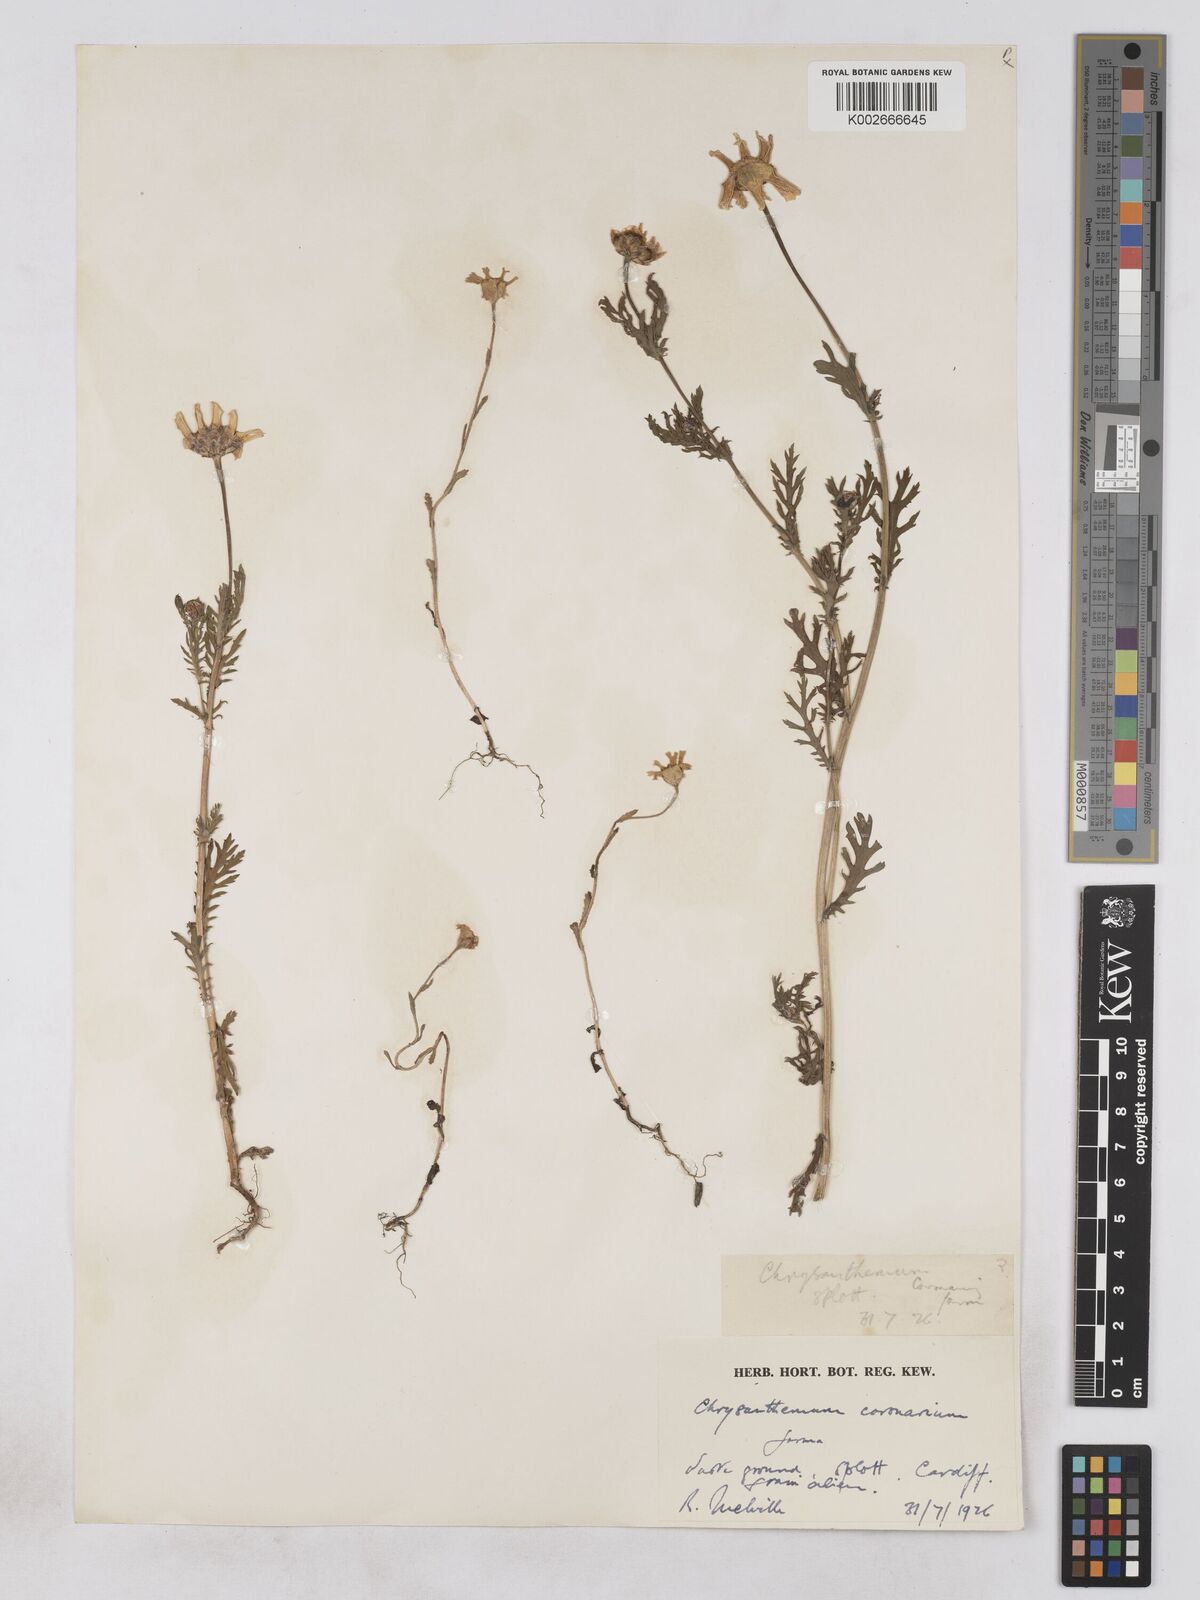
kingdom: Plantae
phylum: Tracheophyta
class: Magnoliopsida
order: Asterales
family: Asteraceae
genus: Glebionis
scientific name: Glebionis coronaria
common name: Crowndaisy
